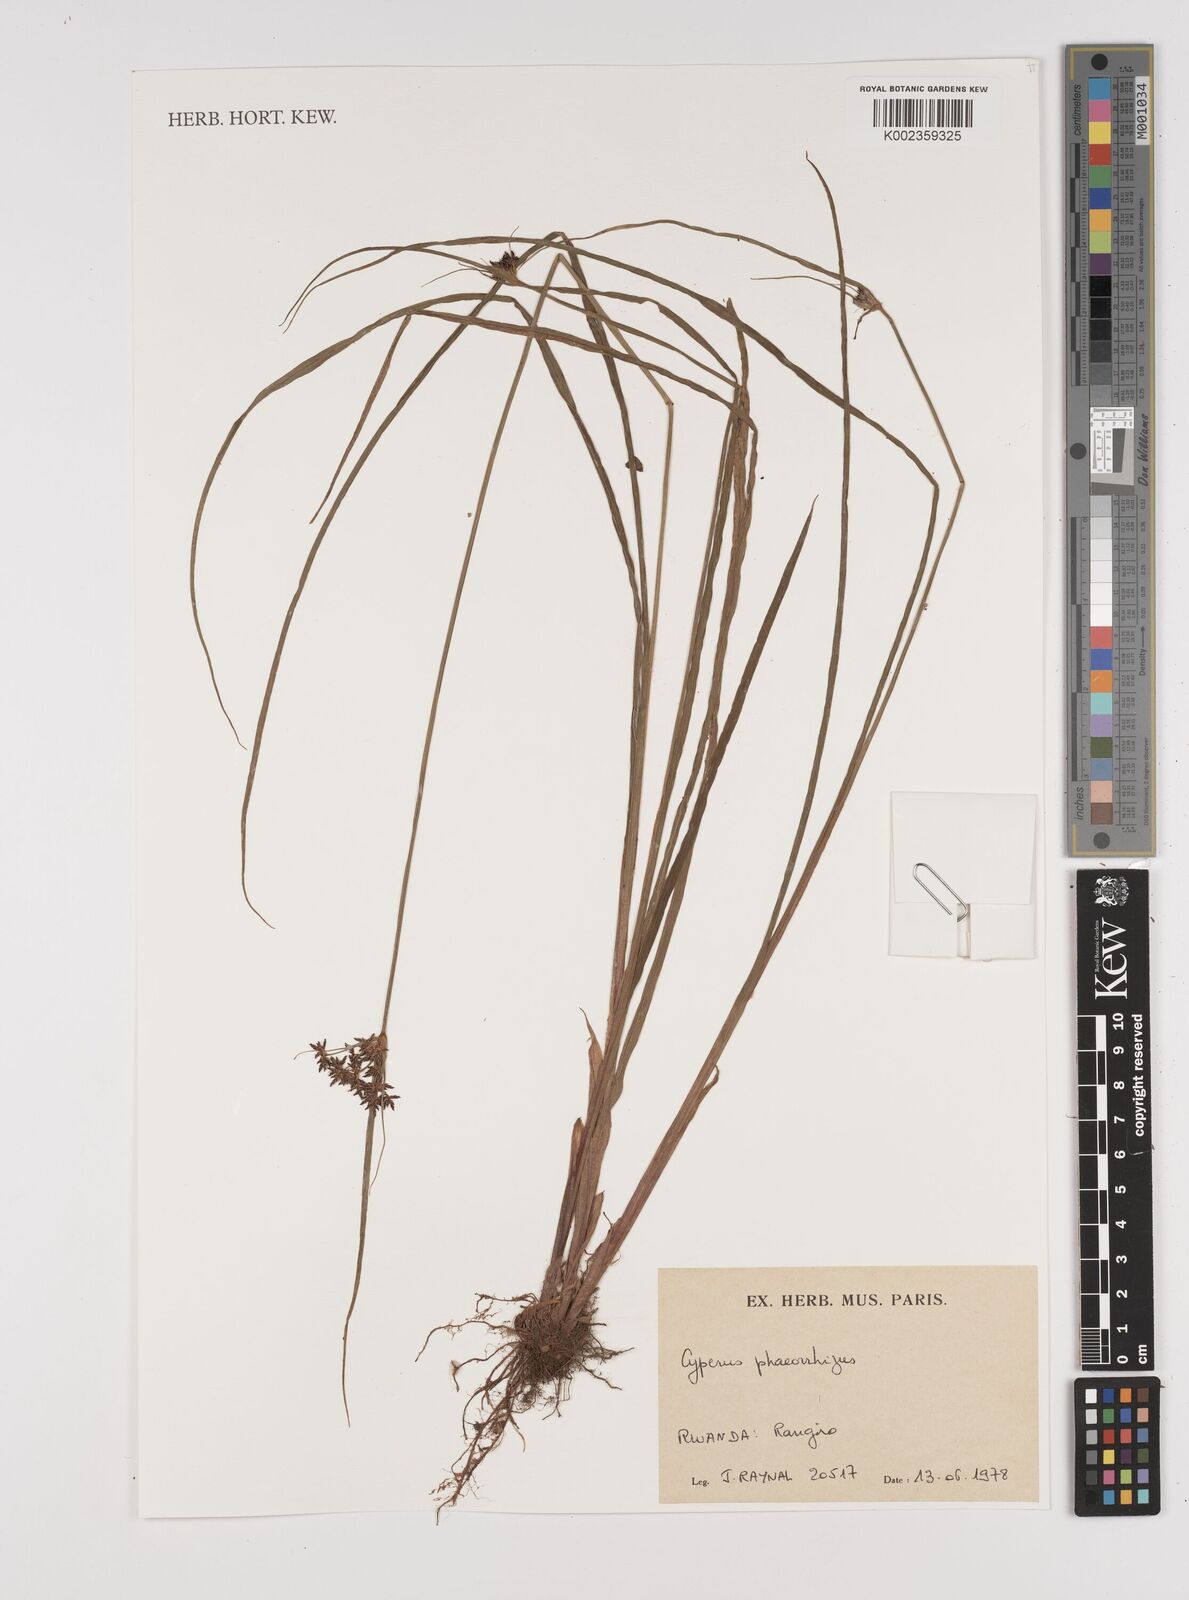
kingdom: Plantae
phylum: Tracheophyta
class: Liliopsida
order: Poales
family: Cyperaceae
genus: Cyperus
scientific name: Cyperus haspan
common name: Haspan flatsedge
